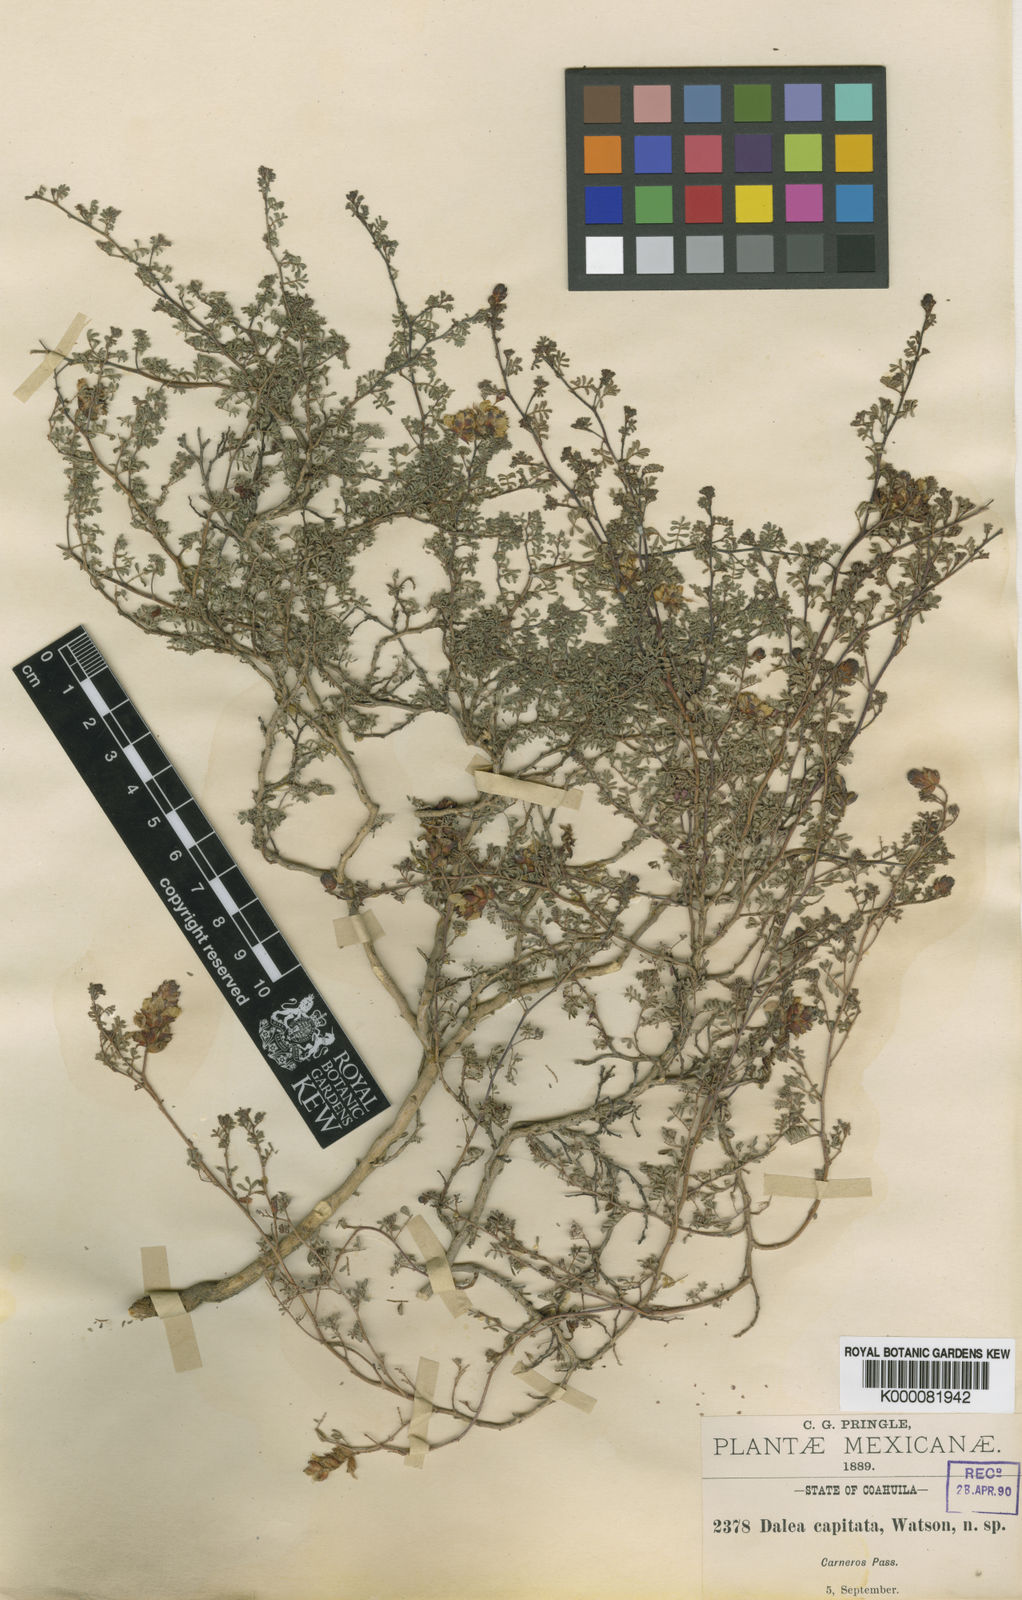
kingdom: Plantae
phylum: Tracheophyta
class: Magnoliopsida
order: Fabales
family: Fabaceae
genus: Dalea
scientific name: Dalea capitata
